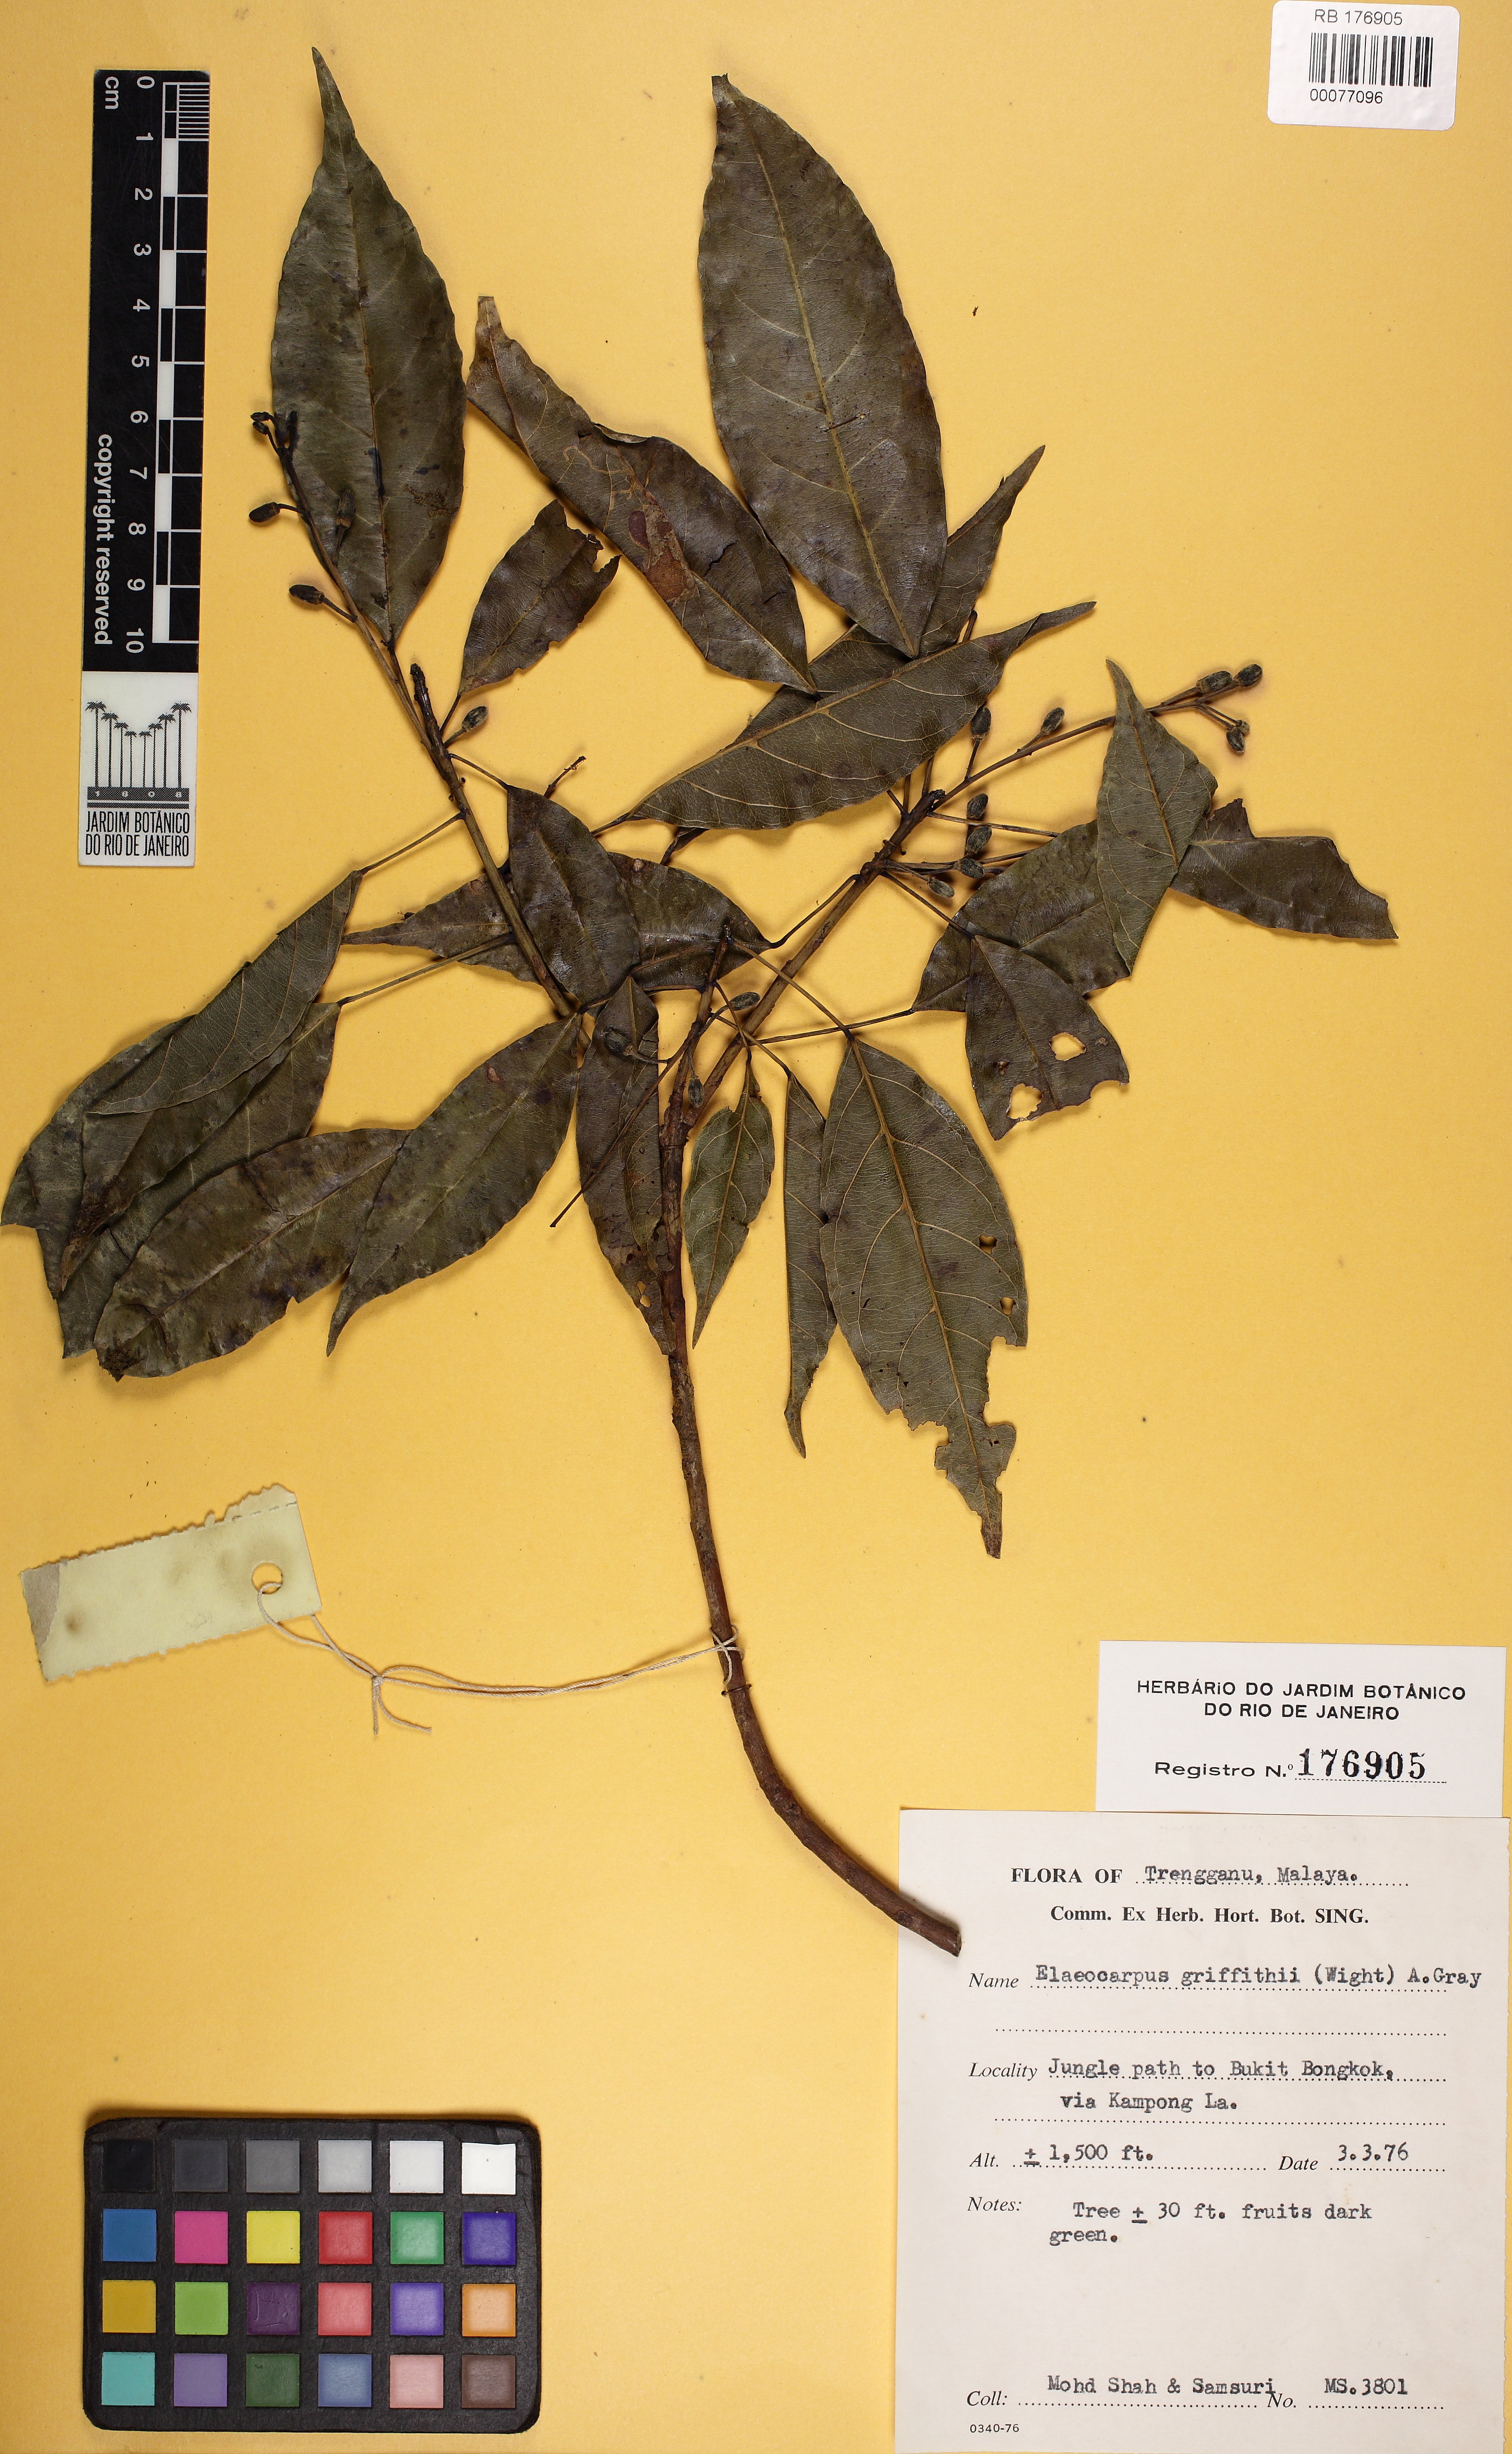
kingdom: Plantae
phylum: Tracheophyta
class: Magnoliopsida
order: Oxalidales
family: Elaeocarpaceae
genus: Elaeocarpus
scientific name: Elaeocarpus griffithii
